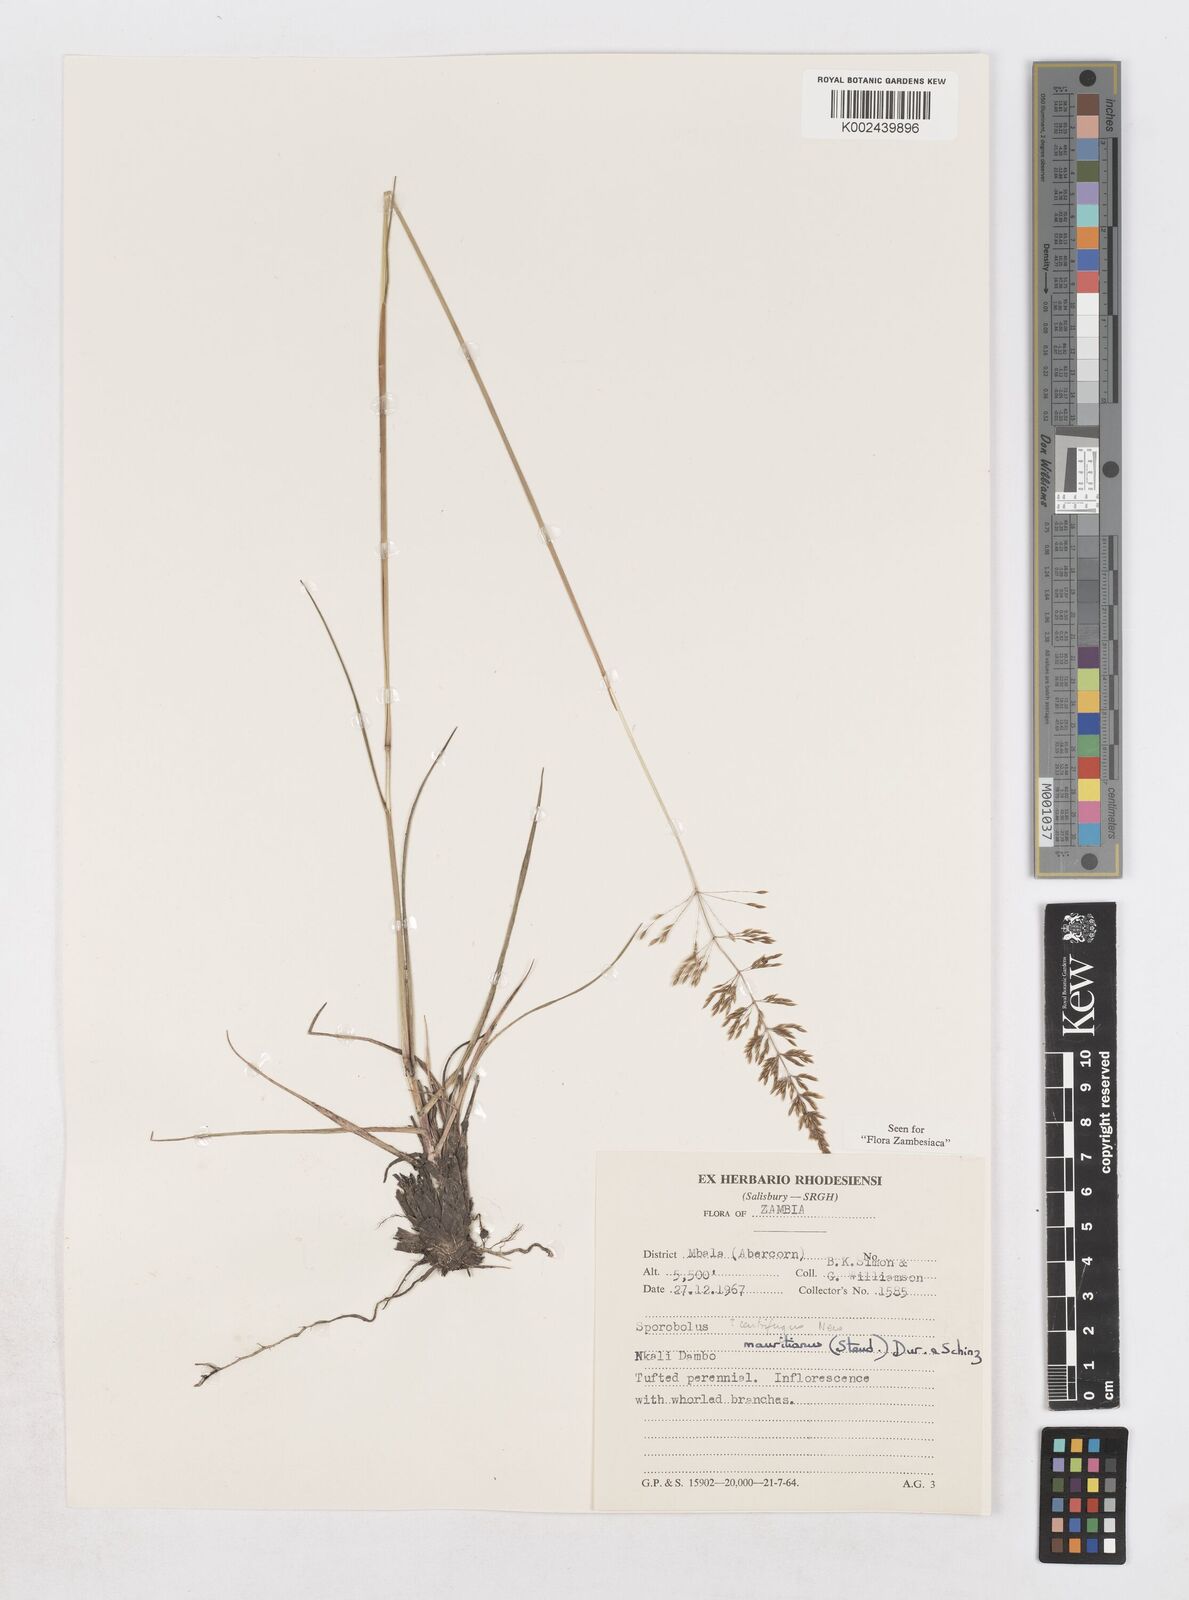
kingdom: Plantae
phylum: Tracheophyta
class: Liliopsida
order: Poales
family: Poaceae
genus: Sporobolus
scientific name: Sporobolus subulatus
